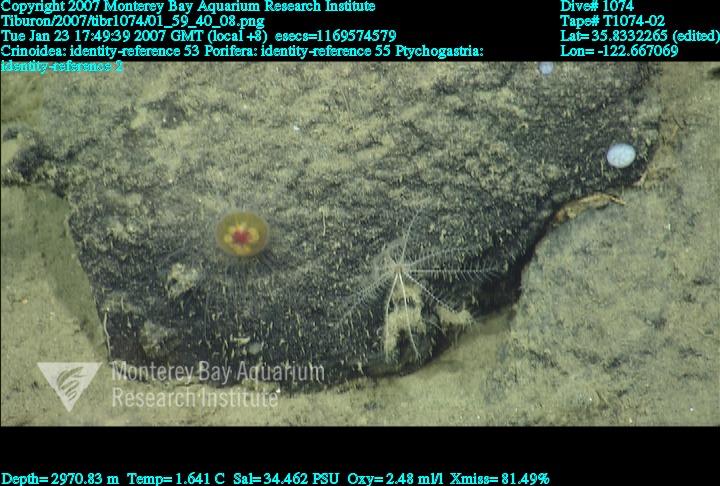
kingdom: Animalia
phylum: Porifera
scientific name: Porifera
